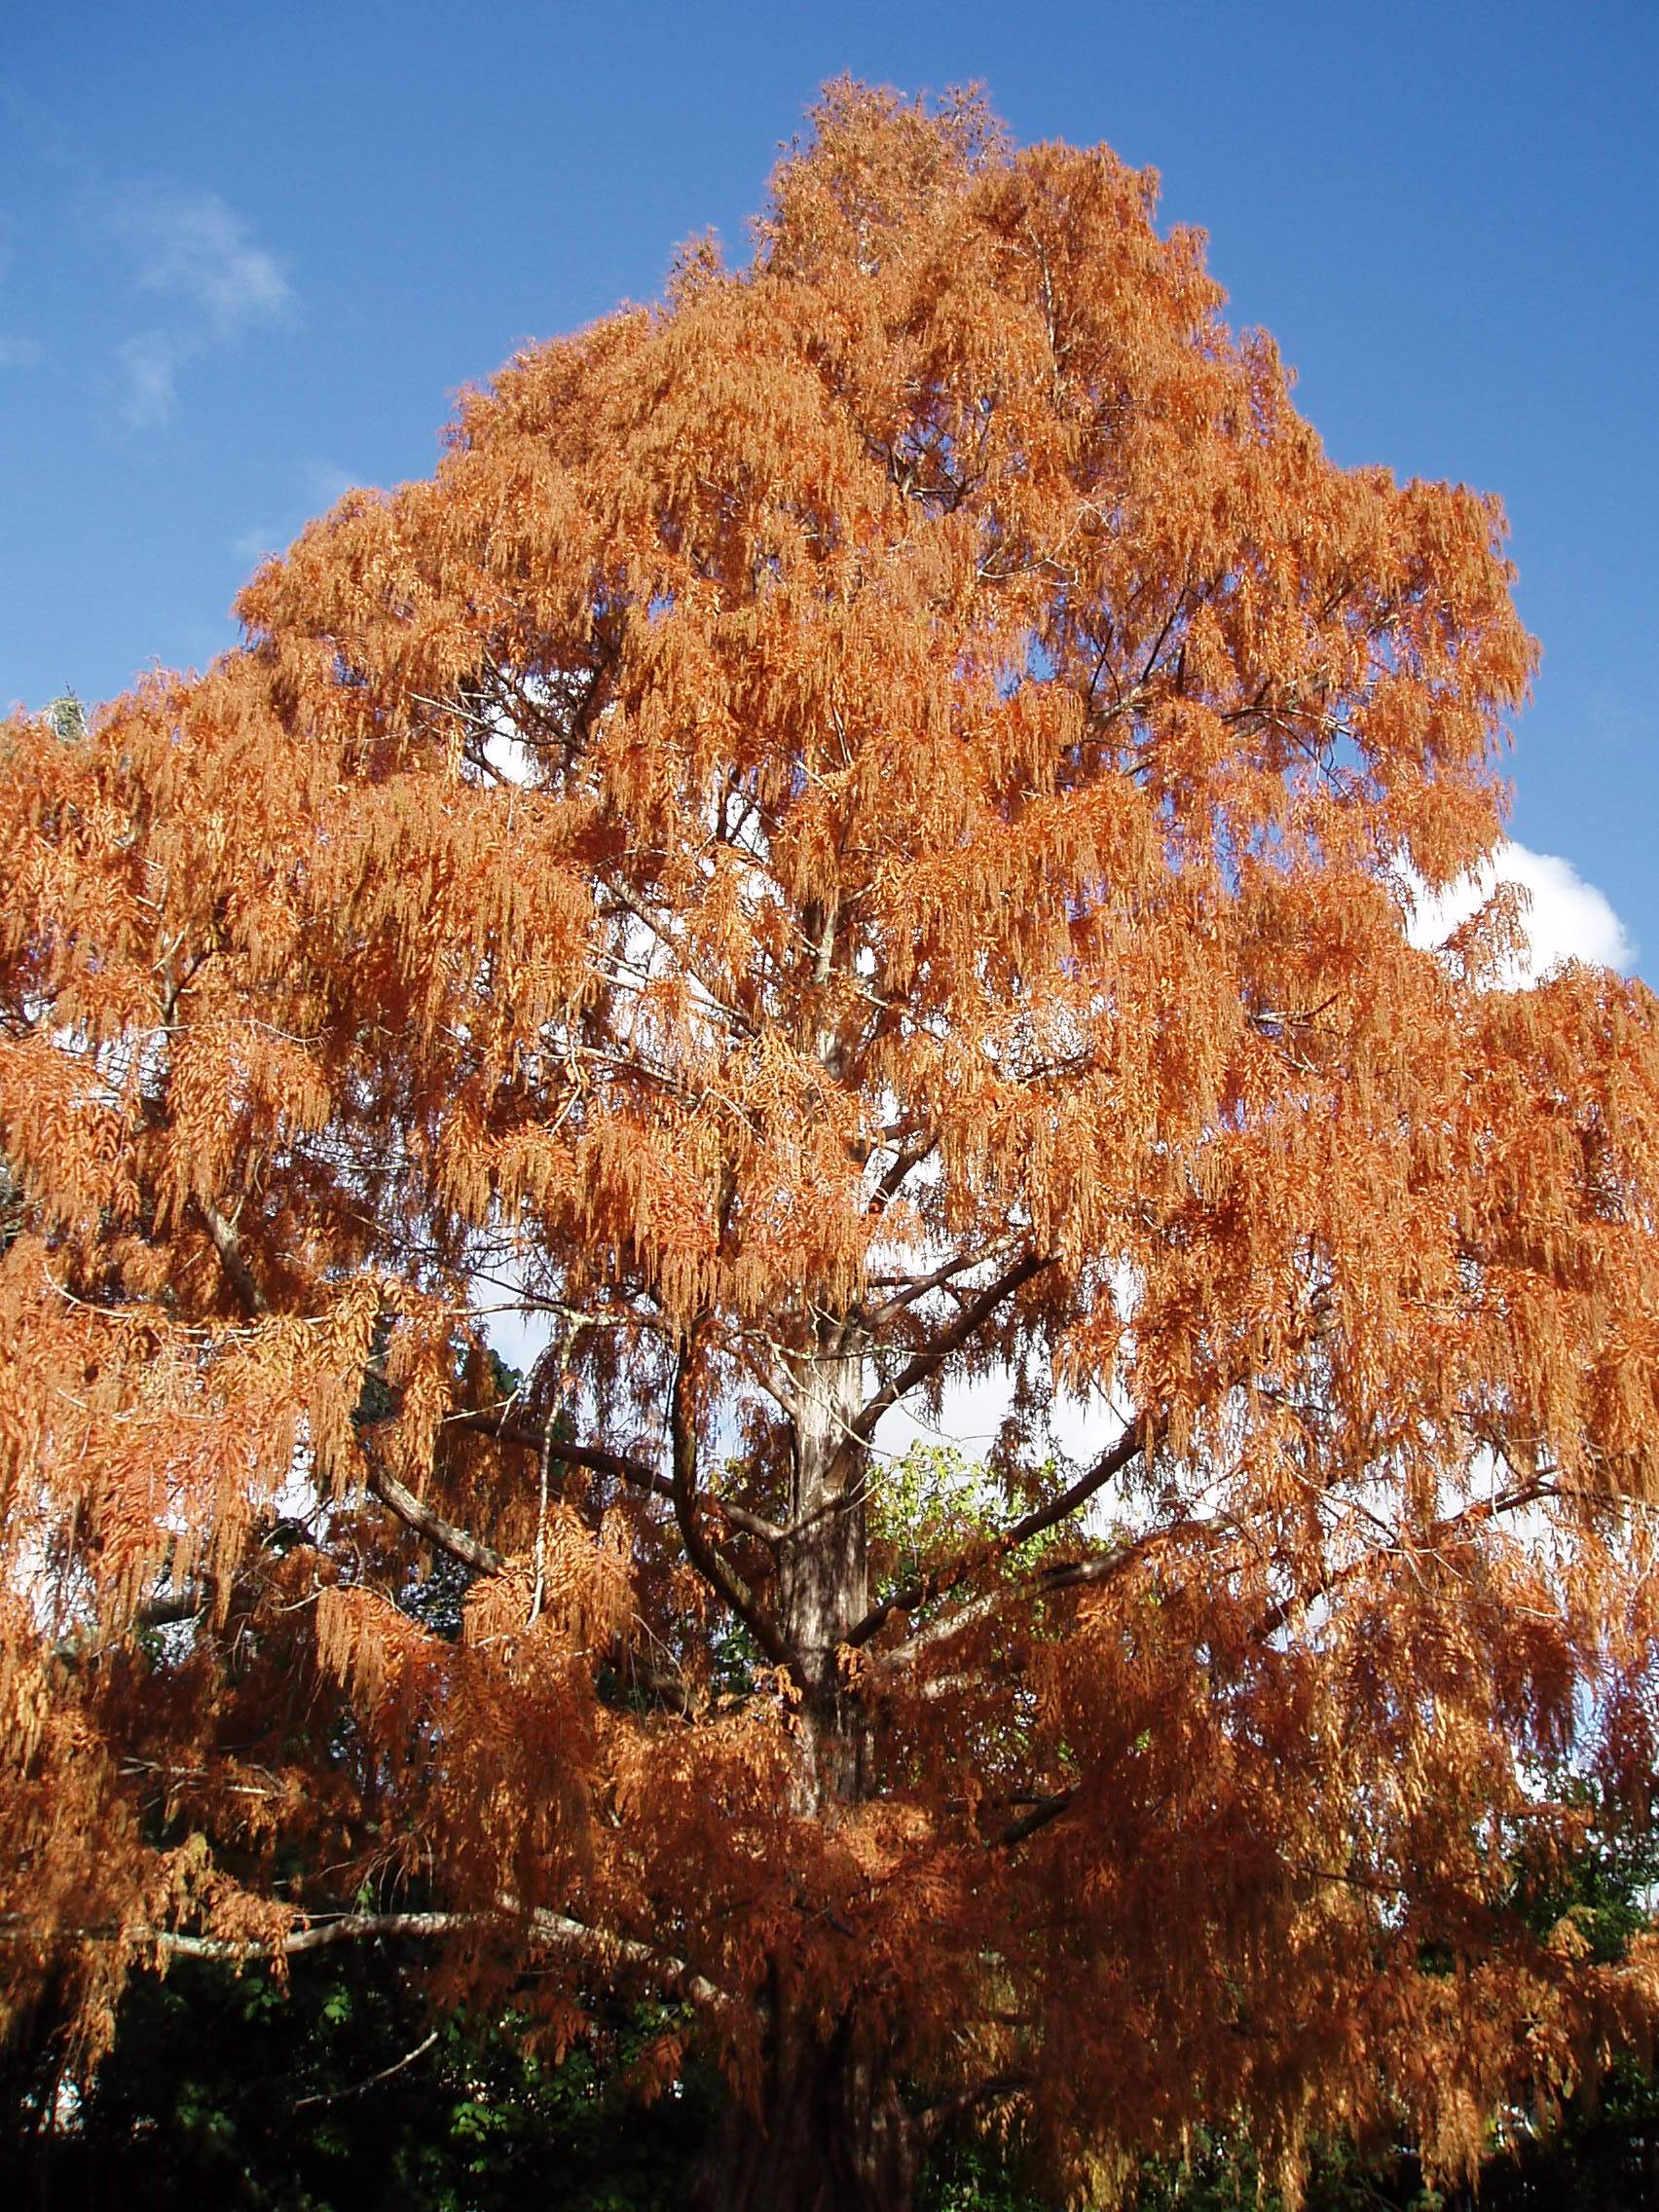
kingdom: Plantae
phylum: Tracheophyta
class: Pinopsida
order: Pinales
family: Cupressaceae
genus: Metasequoia
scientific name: Metasequoia glyptostroboides
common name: Dawn redwood
